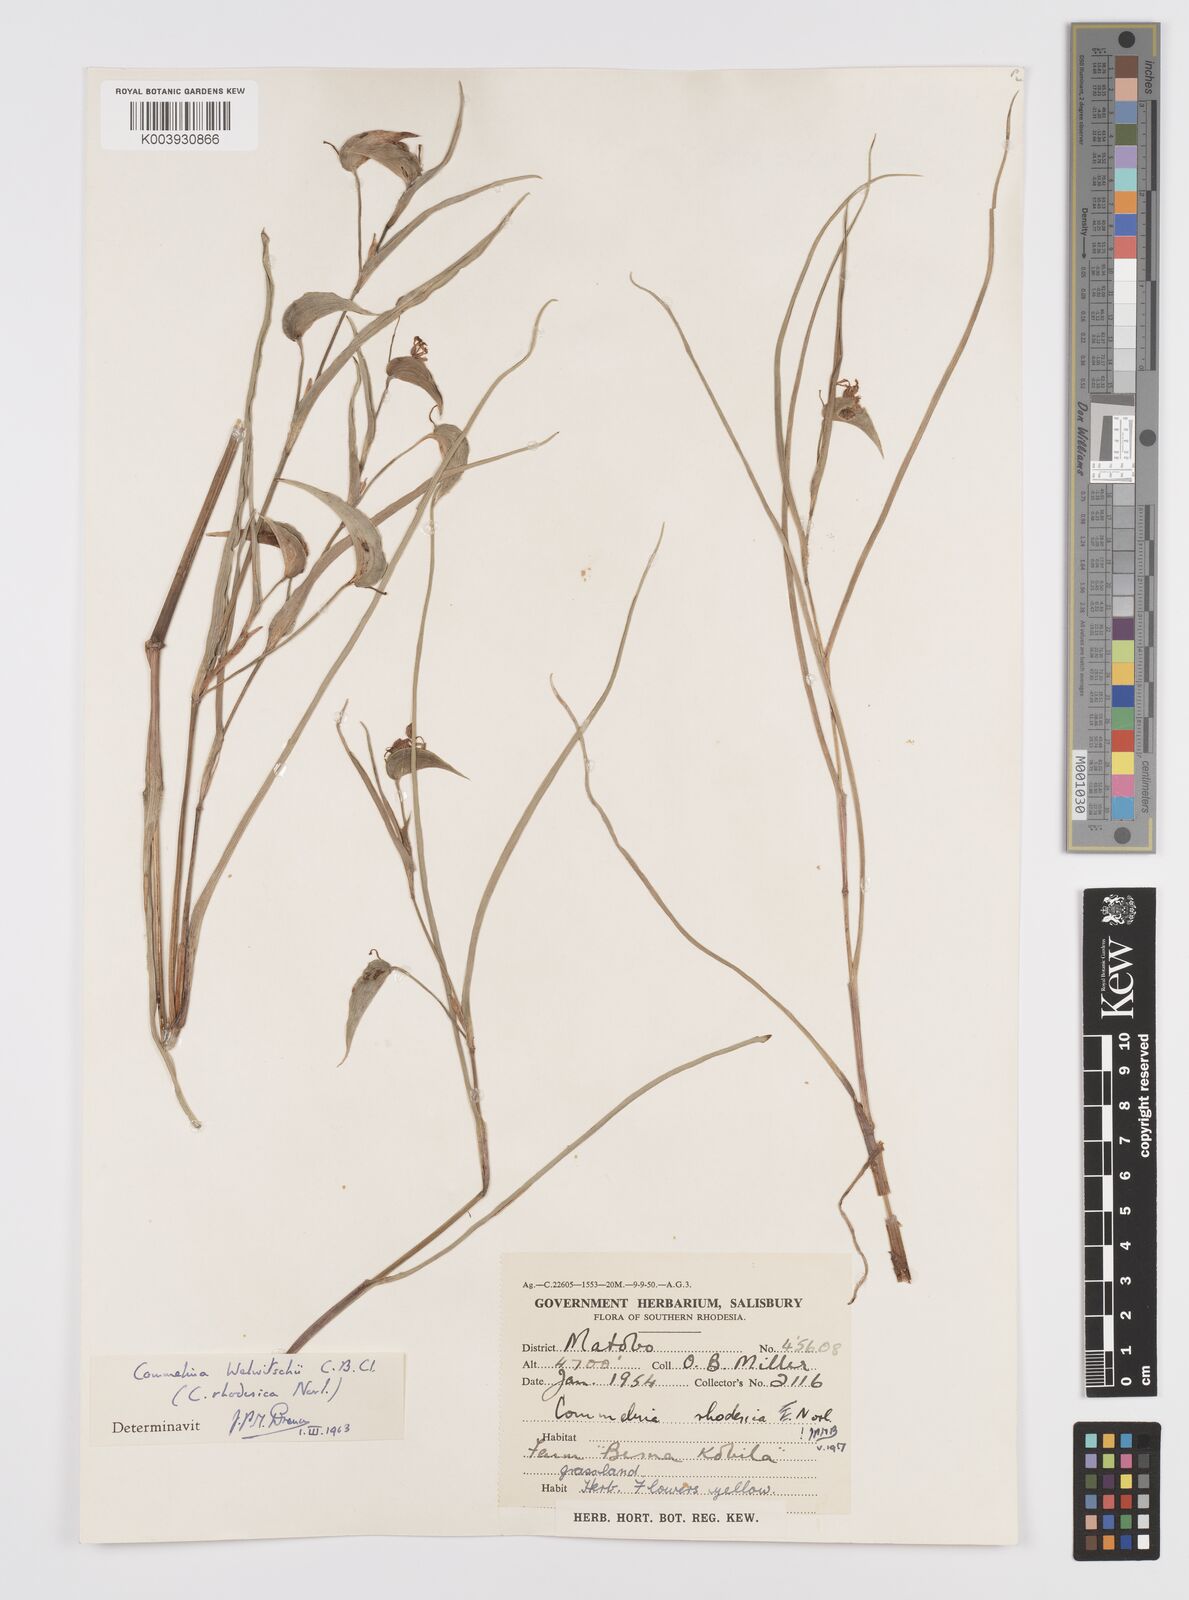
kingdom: Plantae
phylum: Tracheophyta
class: Liliopsida
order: Commelinales
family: Commelinaceae
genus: Commelina
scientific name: Commelina welwitschii
